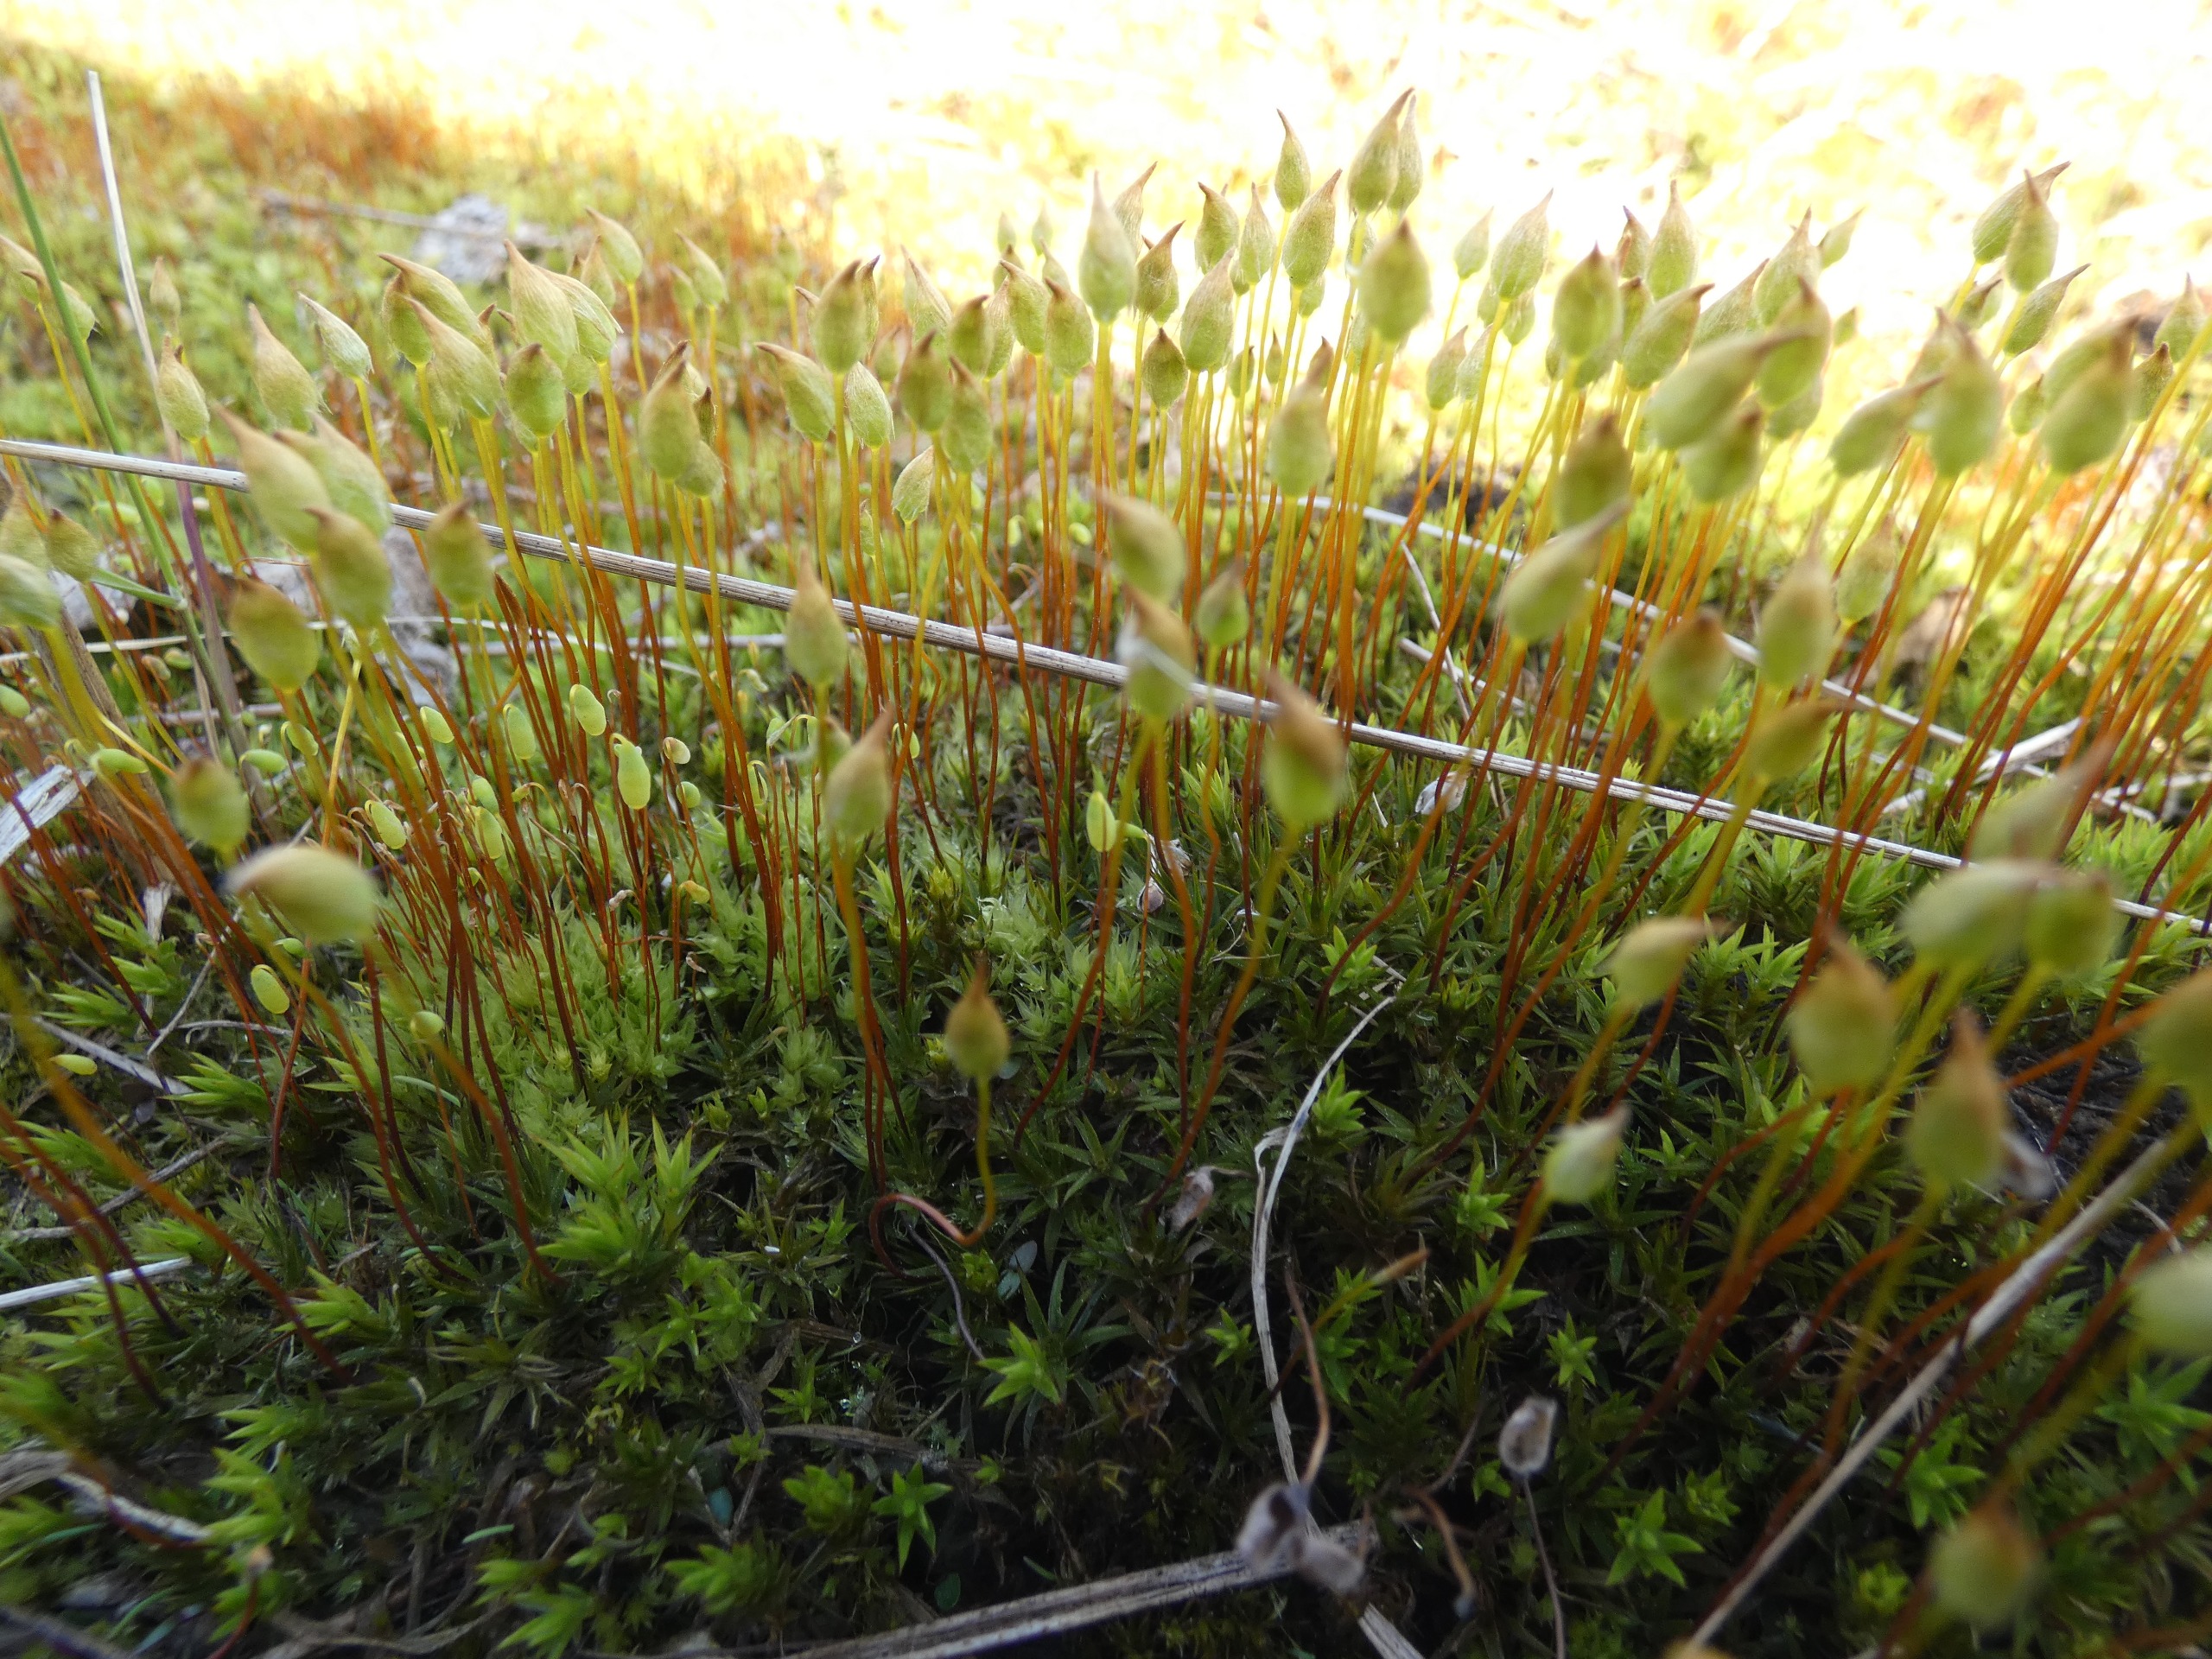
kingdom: Plantae
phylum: Bryophyta
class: Polytrichopsida
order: Polytrichales
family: Polytrichaceae
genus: Polytrichum
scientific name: Polytrichum
